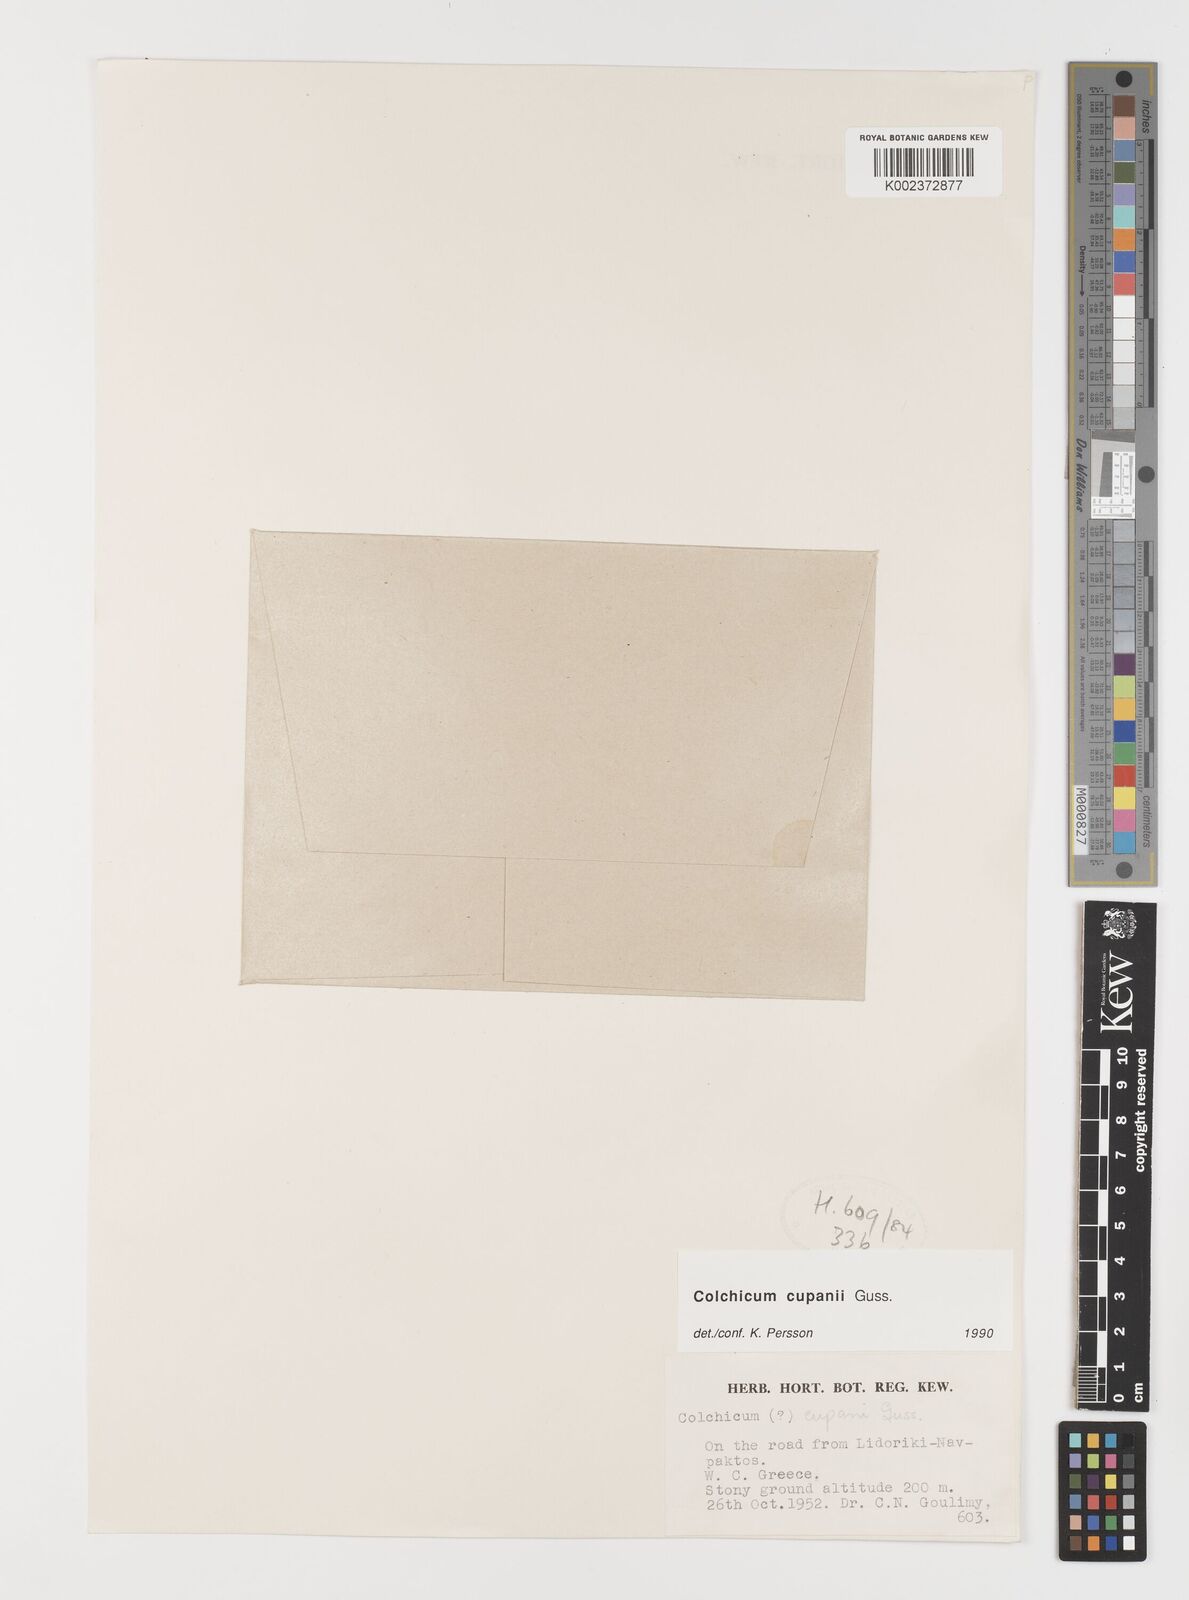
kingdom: Plantae
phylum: Tracheophyta
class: Liliopsida
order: Liliales
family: Colchicaceae
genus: Colchicum
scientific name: Colchicum cupanii
